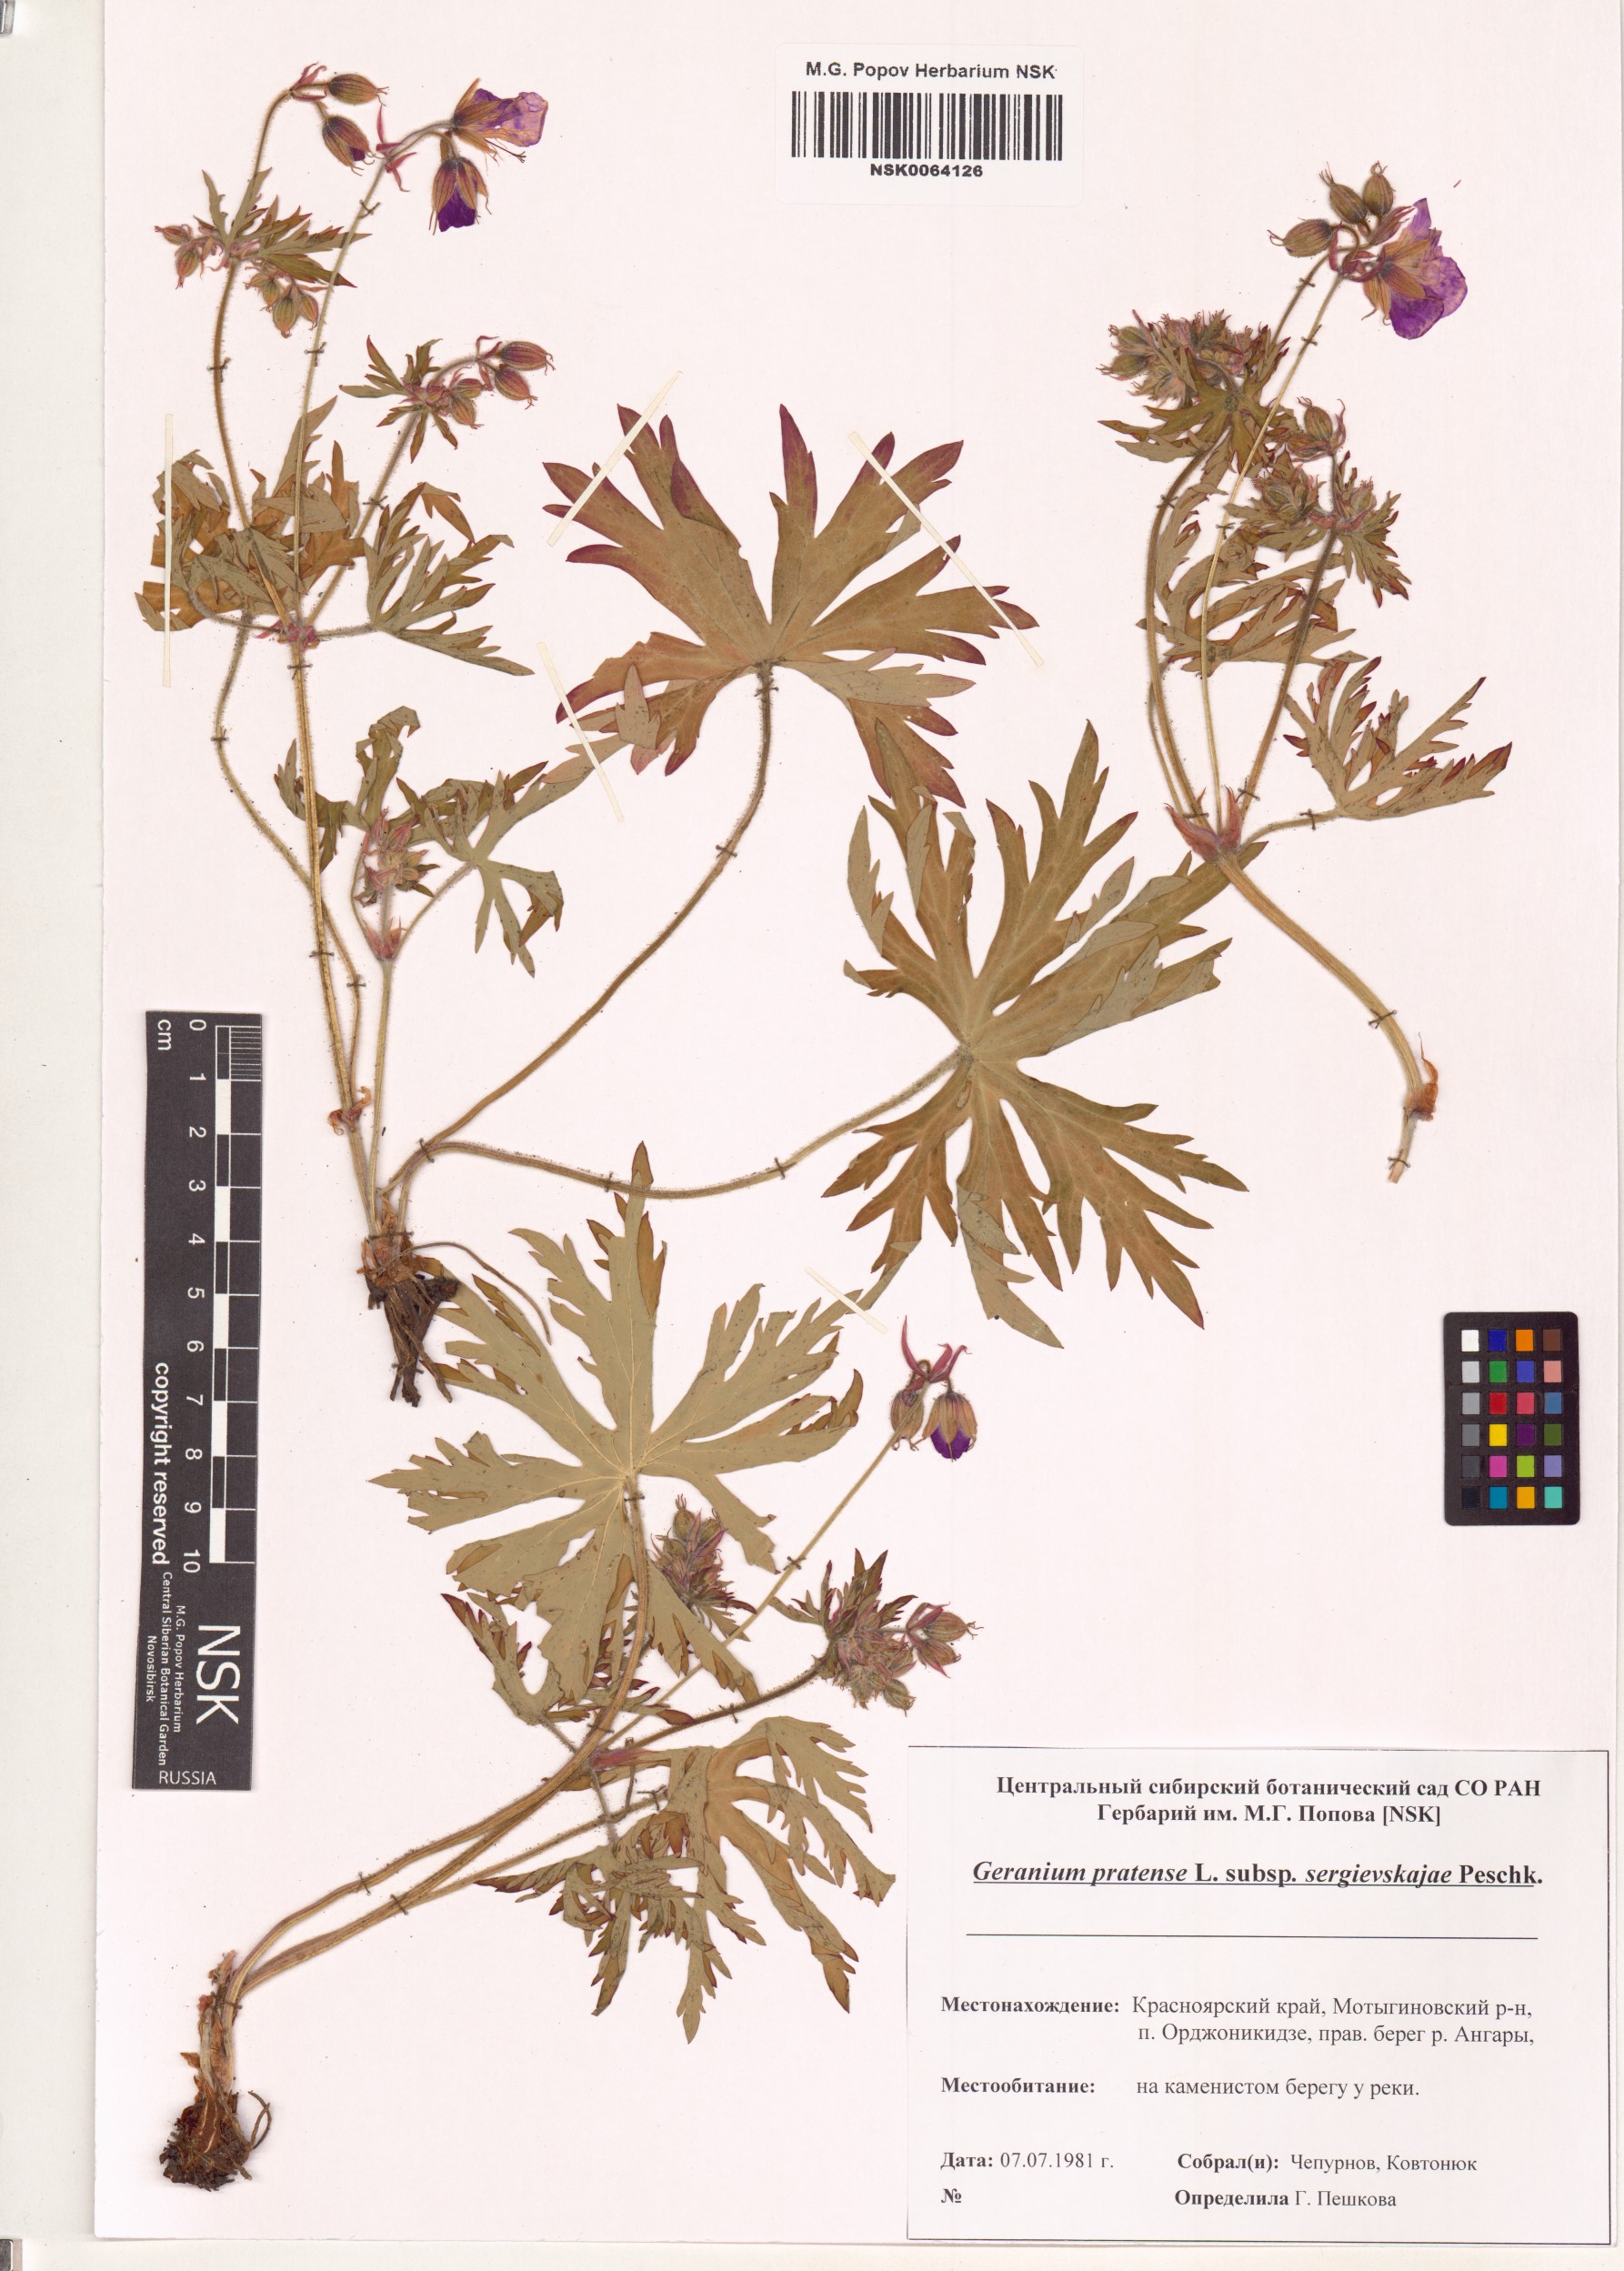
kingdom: Plantae
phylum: Tracheophyta
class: Magnoliopsida
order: Geraniales
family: Geraniaceae
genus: Geranium
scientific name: Geranium pratense
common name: Meadow crane's-bill
